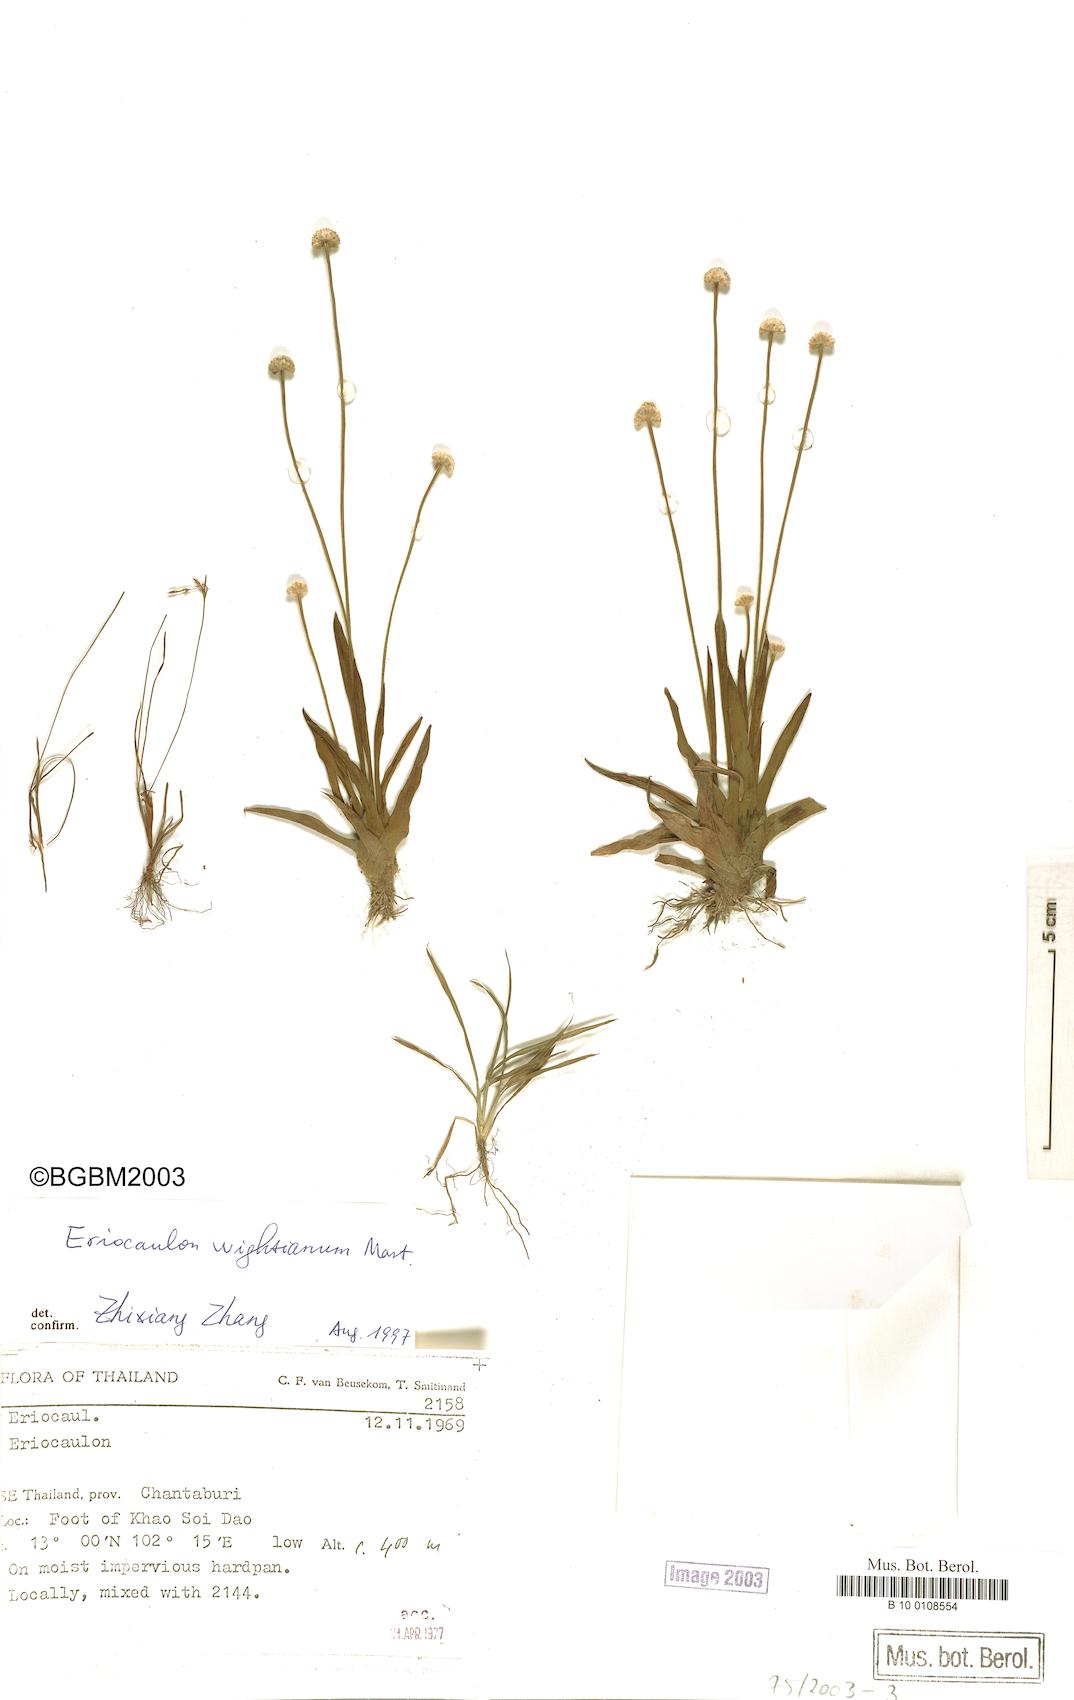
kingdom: Plantae
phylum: Tracheophyta
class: Liliopsida
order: Poales
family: Eriocaulaceae
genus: Eriocaulon
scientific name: Eriocaulon wightianum
